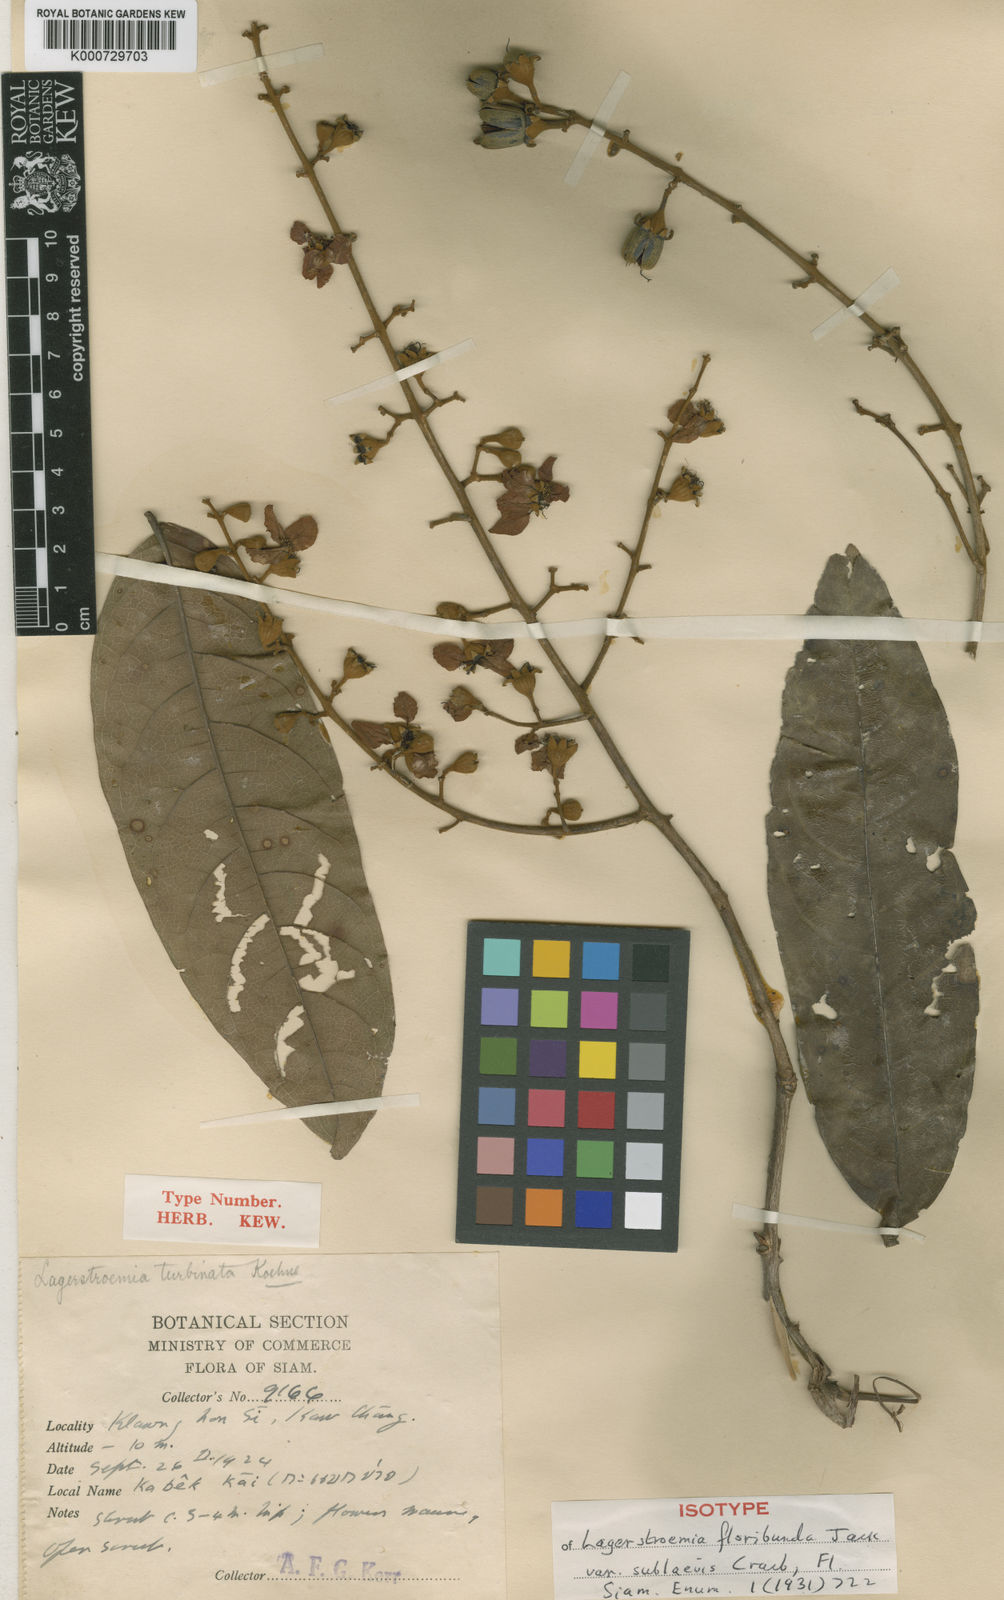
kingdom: Plantae
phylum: Tracheophyta
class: Magnoliopsida
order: Myrtales
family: Lythraceae
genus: Lagerstroemia
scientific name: Lagerstroemia floribunda
